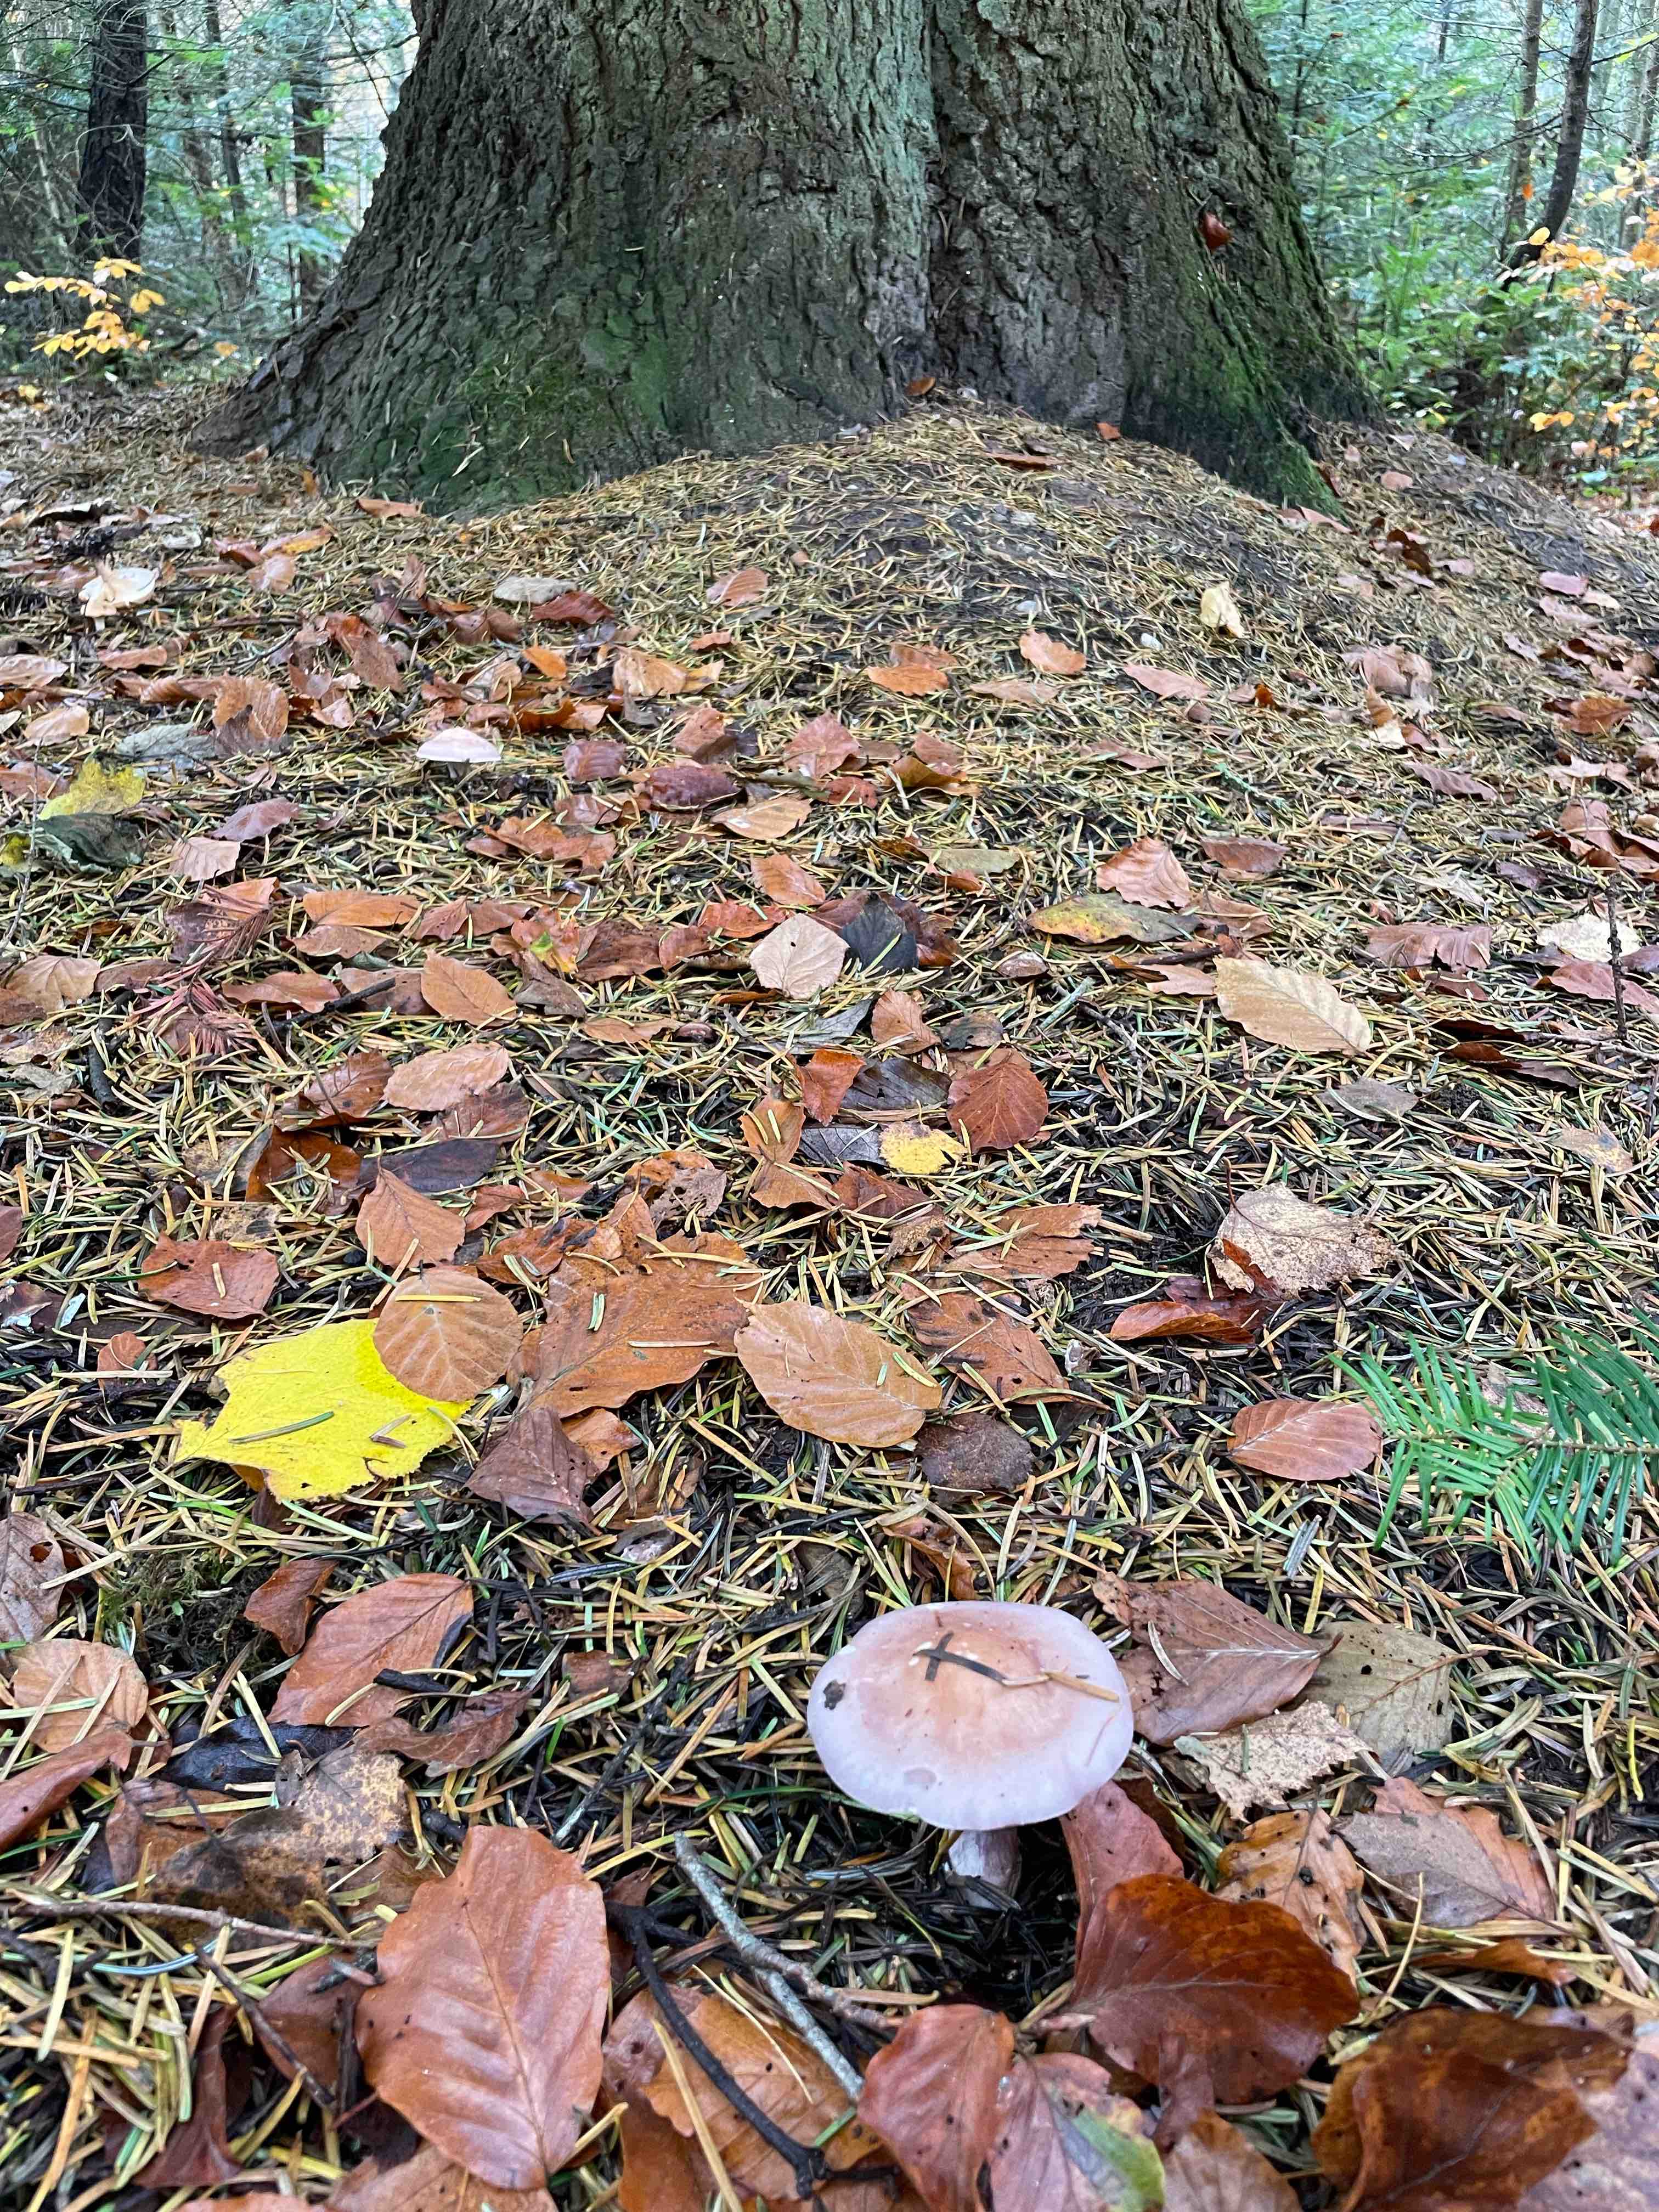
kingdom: Fungi
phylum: Basidiomycota
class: Agaricomycetes
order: Agaricales
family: Tricholomataceae
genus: Lepista
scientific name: Lepista nuda
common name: violet hekseringshat
